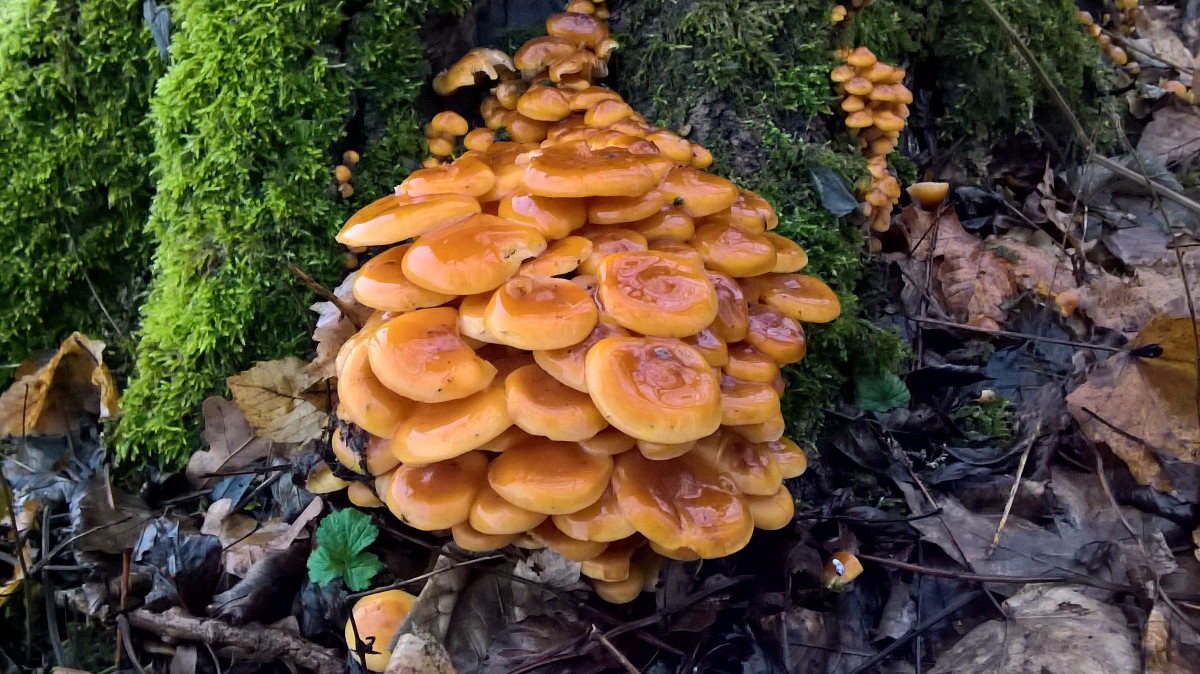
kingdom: Fungi
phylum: Basidiomycota
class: Agaricomycetes
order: Agaricales
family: Physalacriaceae
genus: Flammulina
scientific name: Flammulina velutipes
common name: gul fløjlsfod
